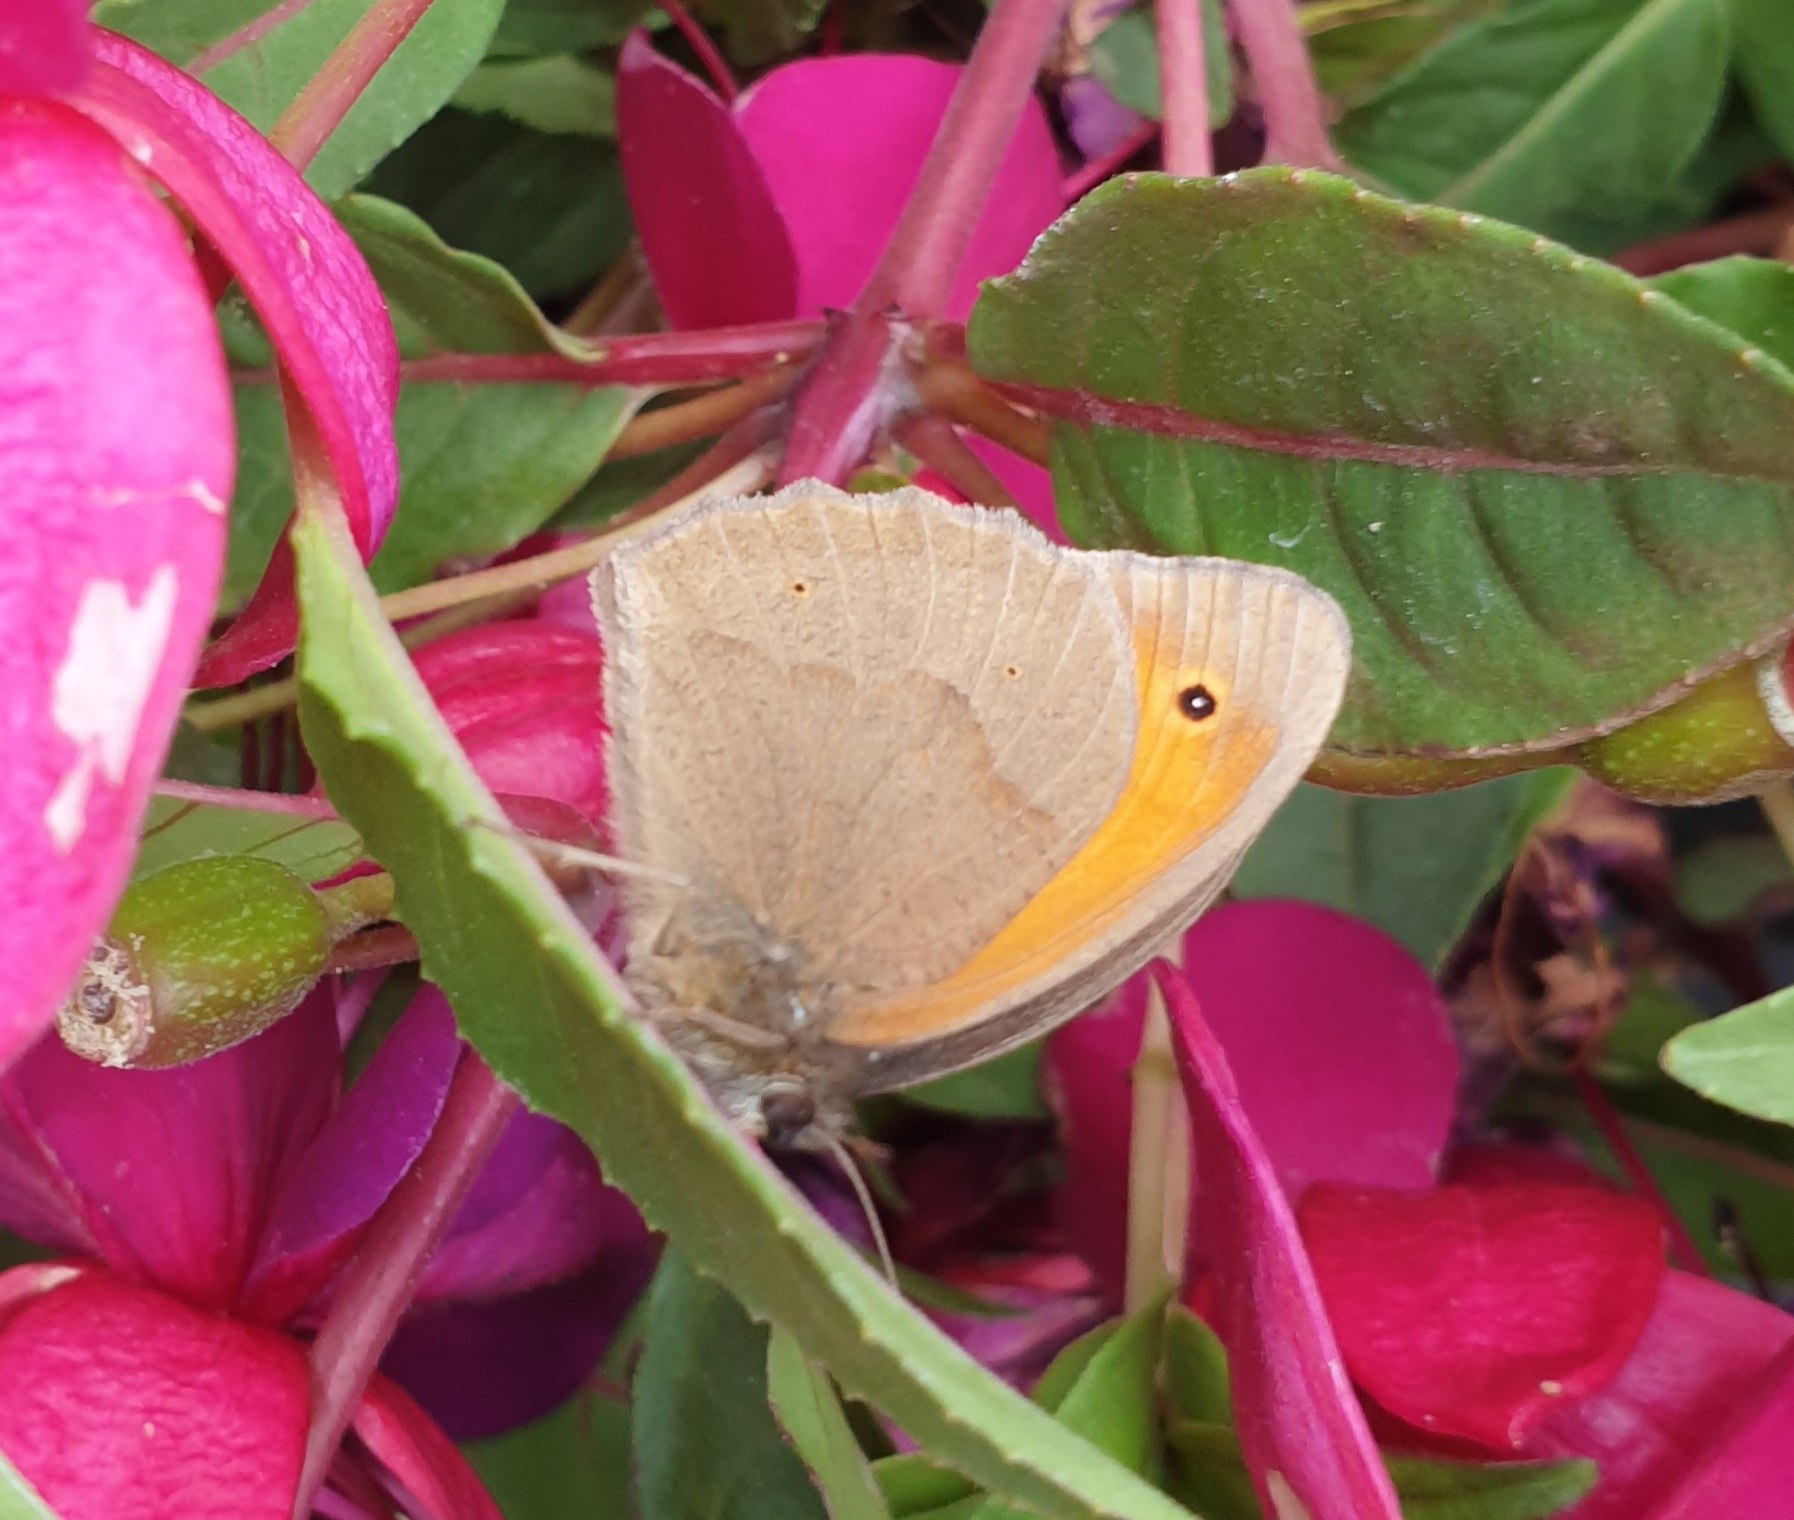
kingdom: Animalia
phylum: Arthropoda
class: Insecta
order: Lepidoptera
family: Nymphalidae
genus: Maniola
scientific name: Maniola jurtina
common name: Græsrandøje
